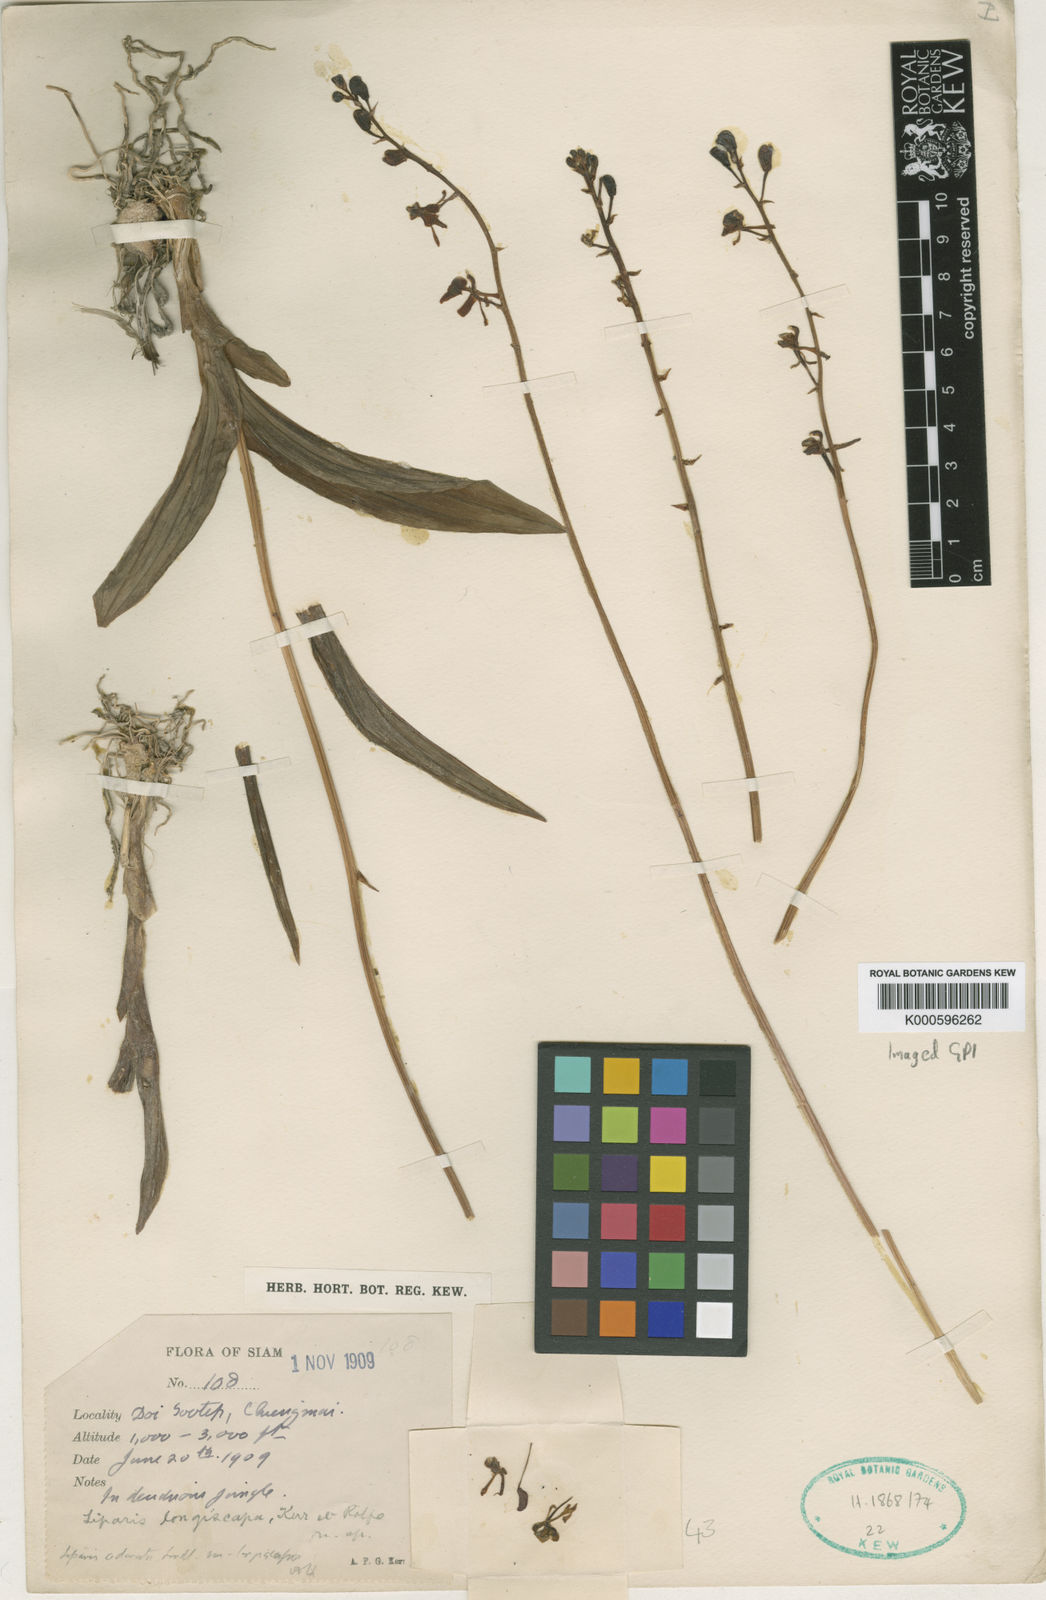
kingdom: Plantae
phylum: Tracheophyta
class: Liliopsida
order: Asparagales
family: Orchidaceae
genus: Liparis
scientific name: Liparis odorata
